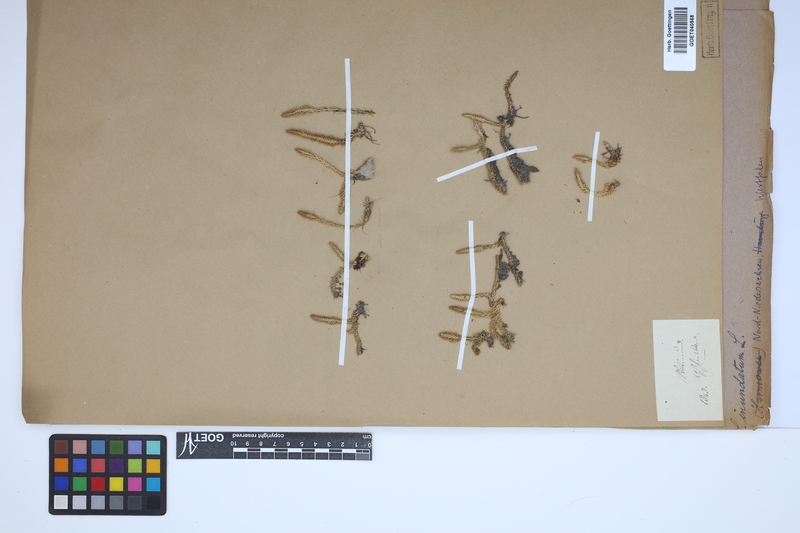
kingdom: Plantae
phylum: Tracheophyta
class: Lycopodiopsida
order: Lycopodiales
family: Lycopodiaceae
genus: Lycopodiella
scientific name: Lycopodiella inundata
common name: Marsh clubmoss
